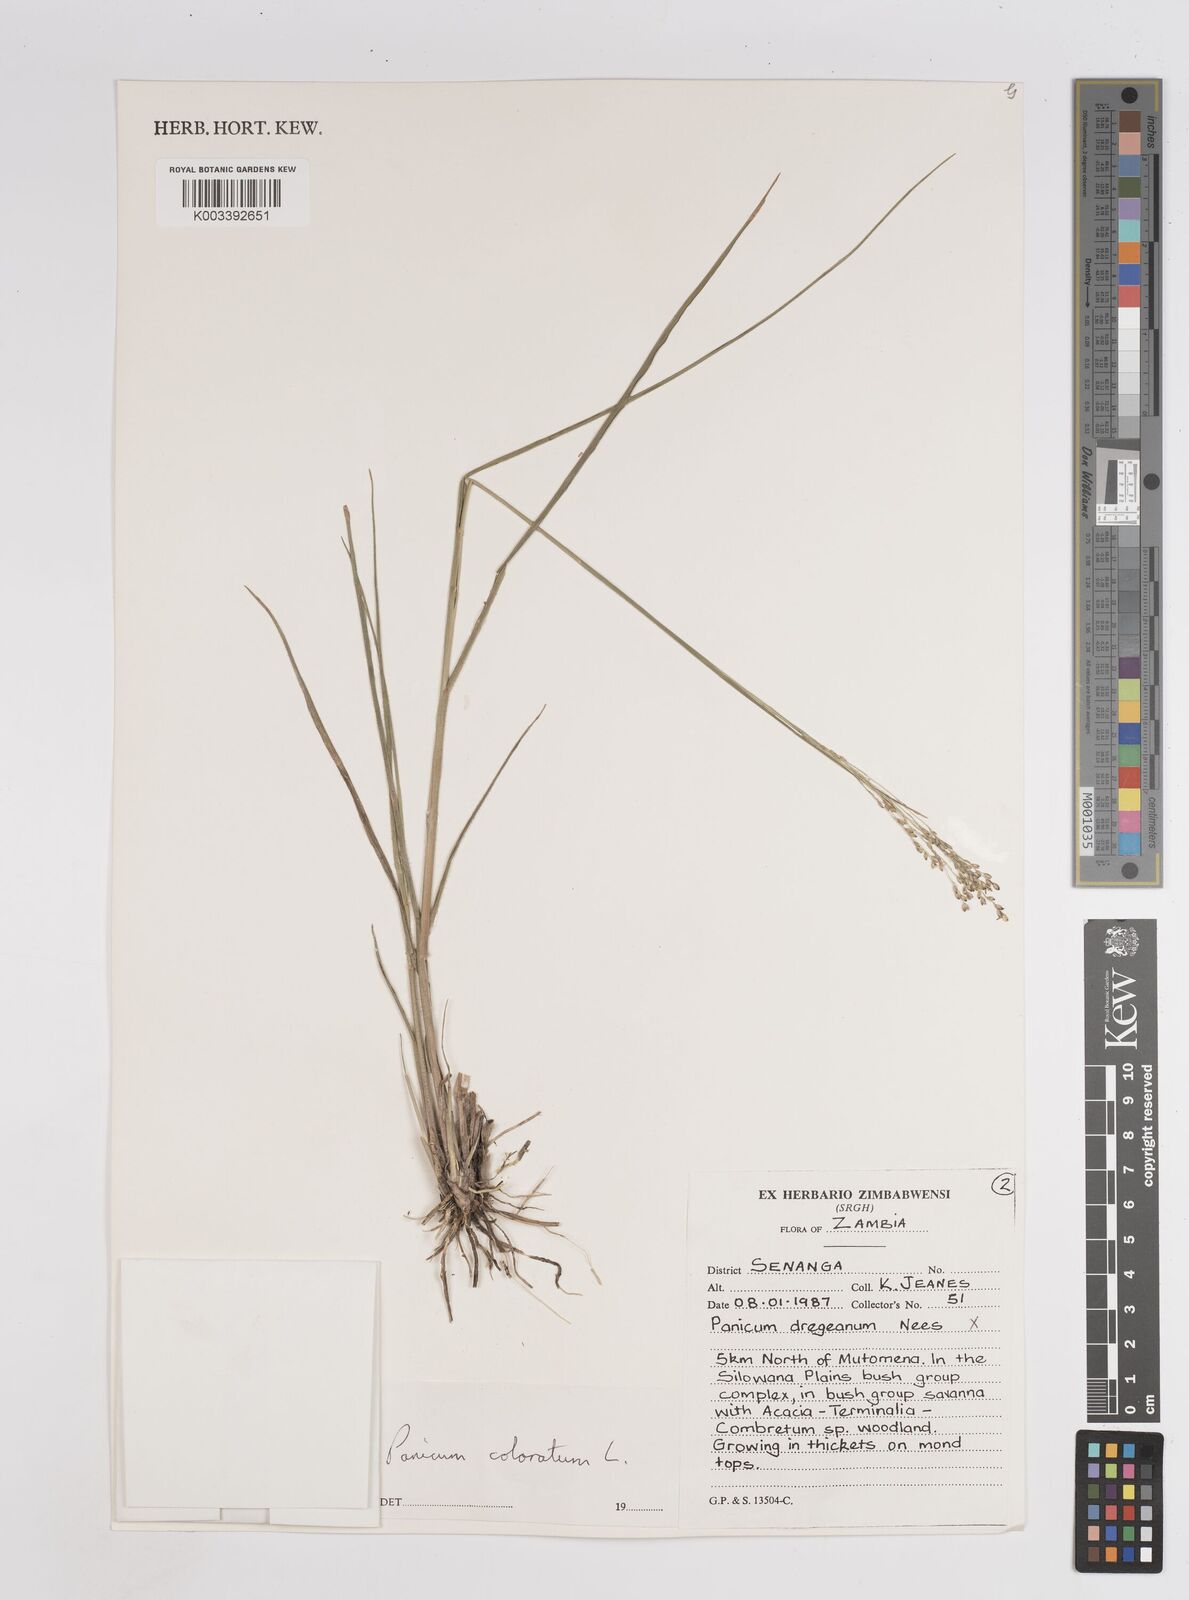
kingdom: Plantae
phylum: Tracheophyta
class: Liliopsida
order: Poales
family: Poaceae
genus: Panicum
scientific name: Panicum
